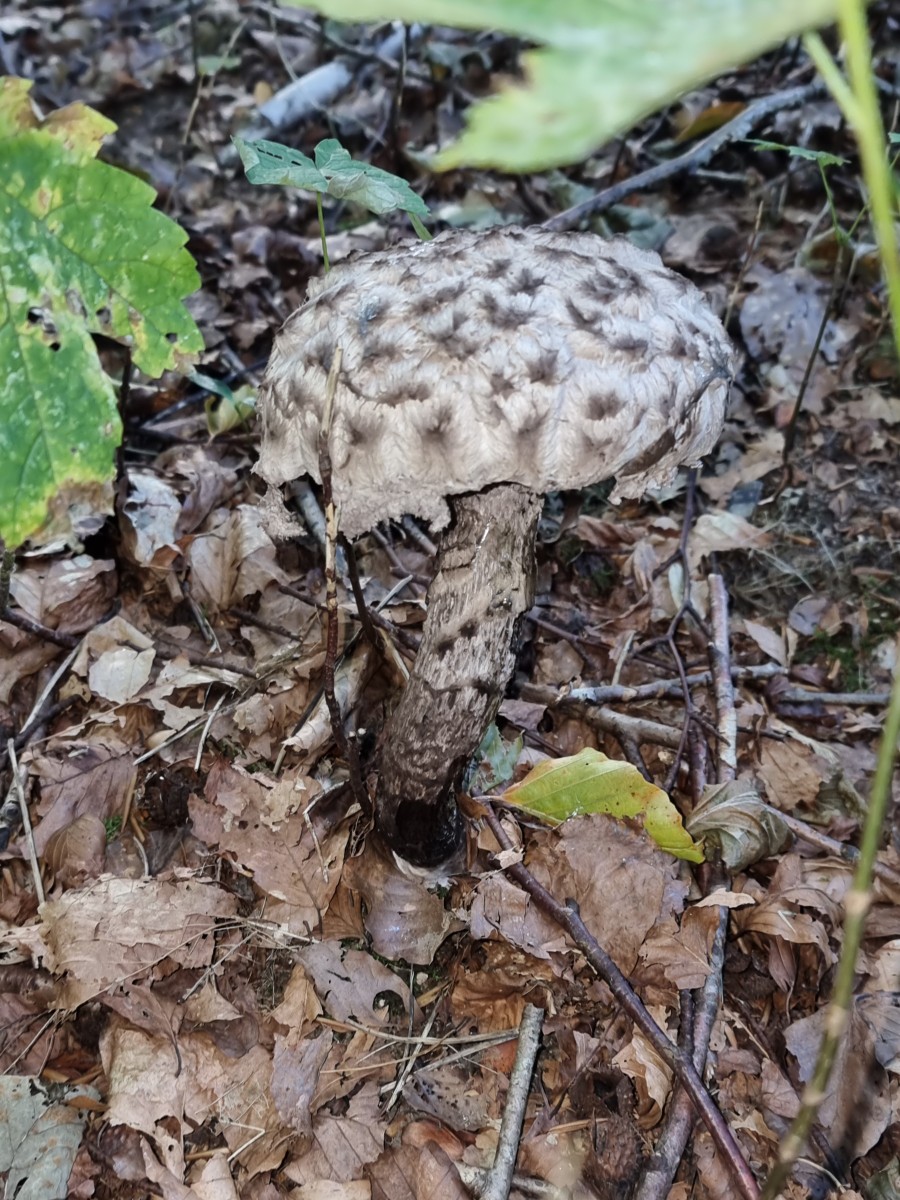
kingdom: Fungi
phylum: Basidiomycota
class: Agaricomycetes
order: Boletales
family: Boletaceae
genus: Strobilomyces
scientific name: Strobilomyces strobilaceus
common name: koglerørhat
